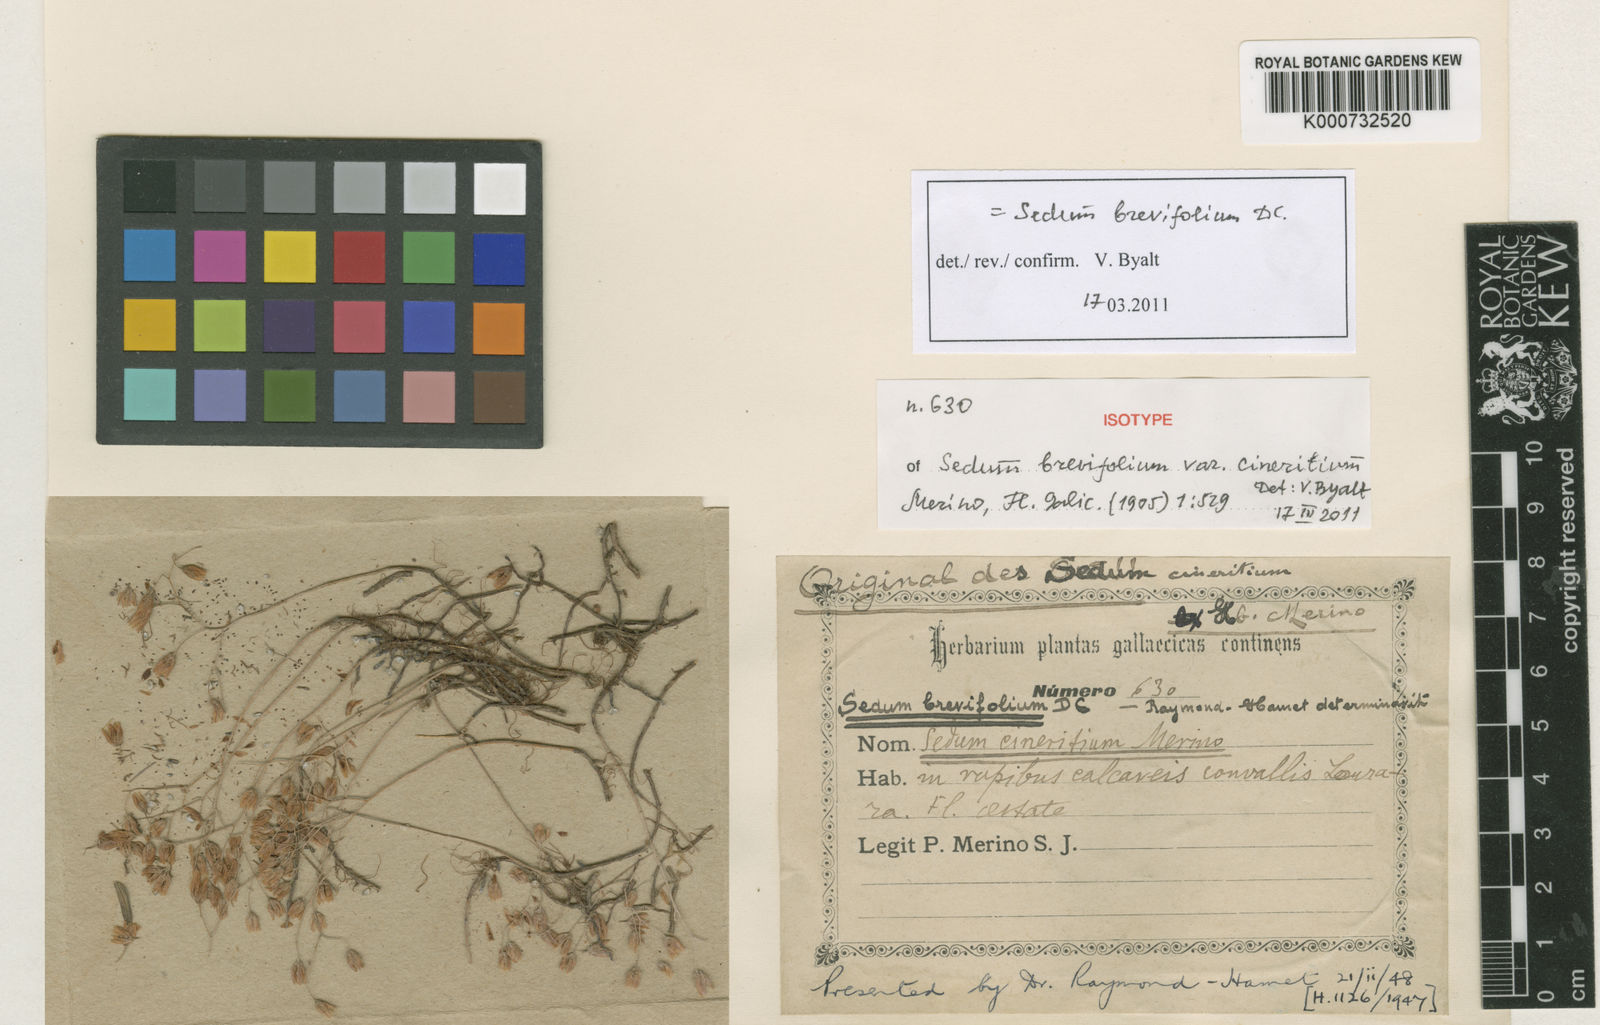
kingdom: Plantae
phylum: Tracheophyta
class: Magnoliopsida
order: Saxifragales
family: Crassulaceae
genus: Sedum
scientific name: Sedum brevifolium
